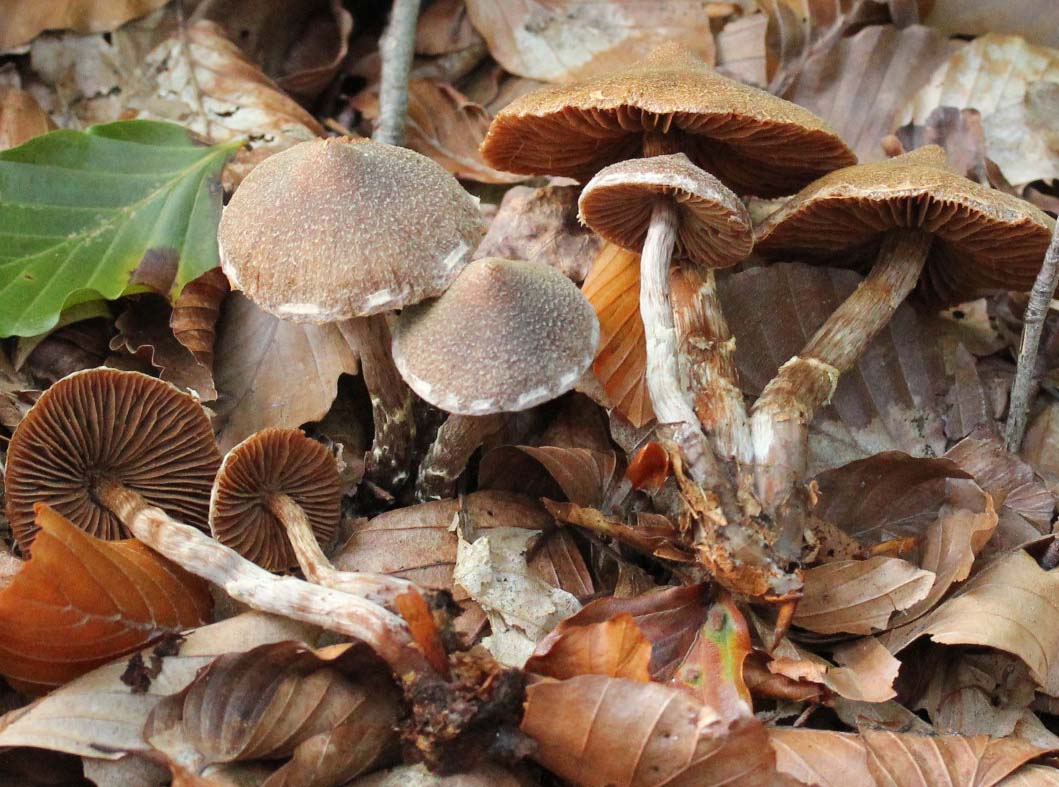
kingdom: Fungi
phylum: Basidiomycota
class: Agaricomycetes
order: Agaricales
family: Cortinariaceae
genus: Cortinarius
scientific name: Cortinarius
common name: pelargonie-slørhat
